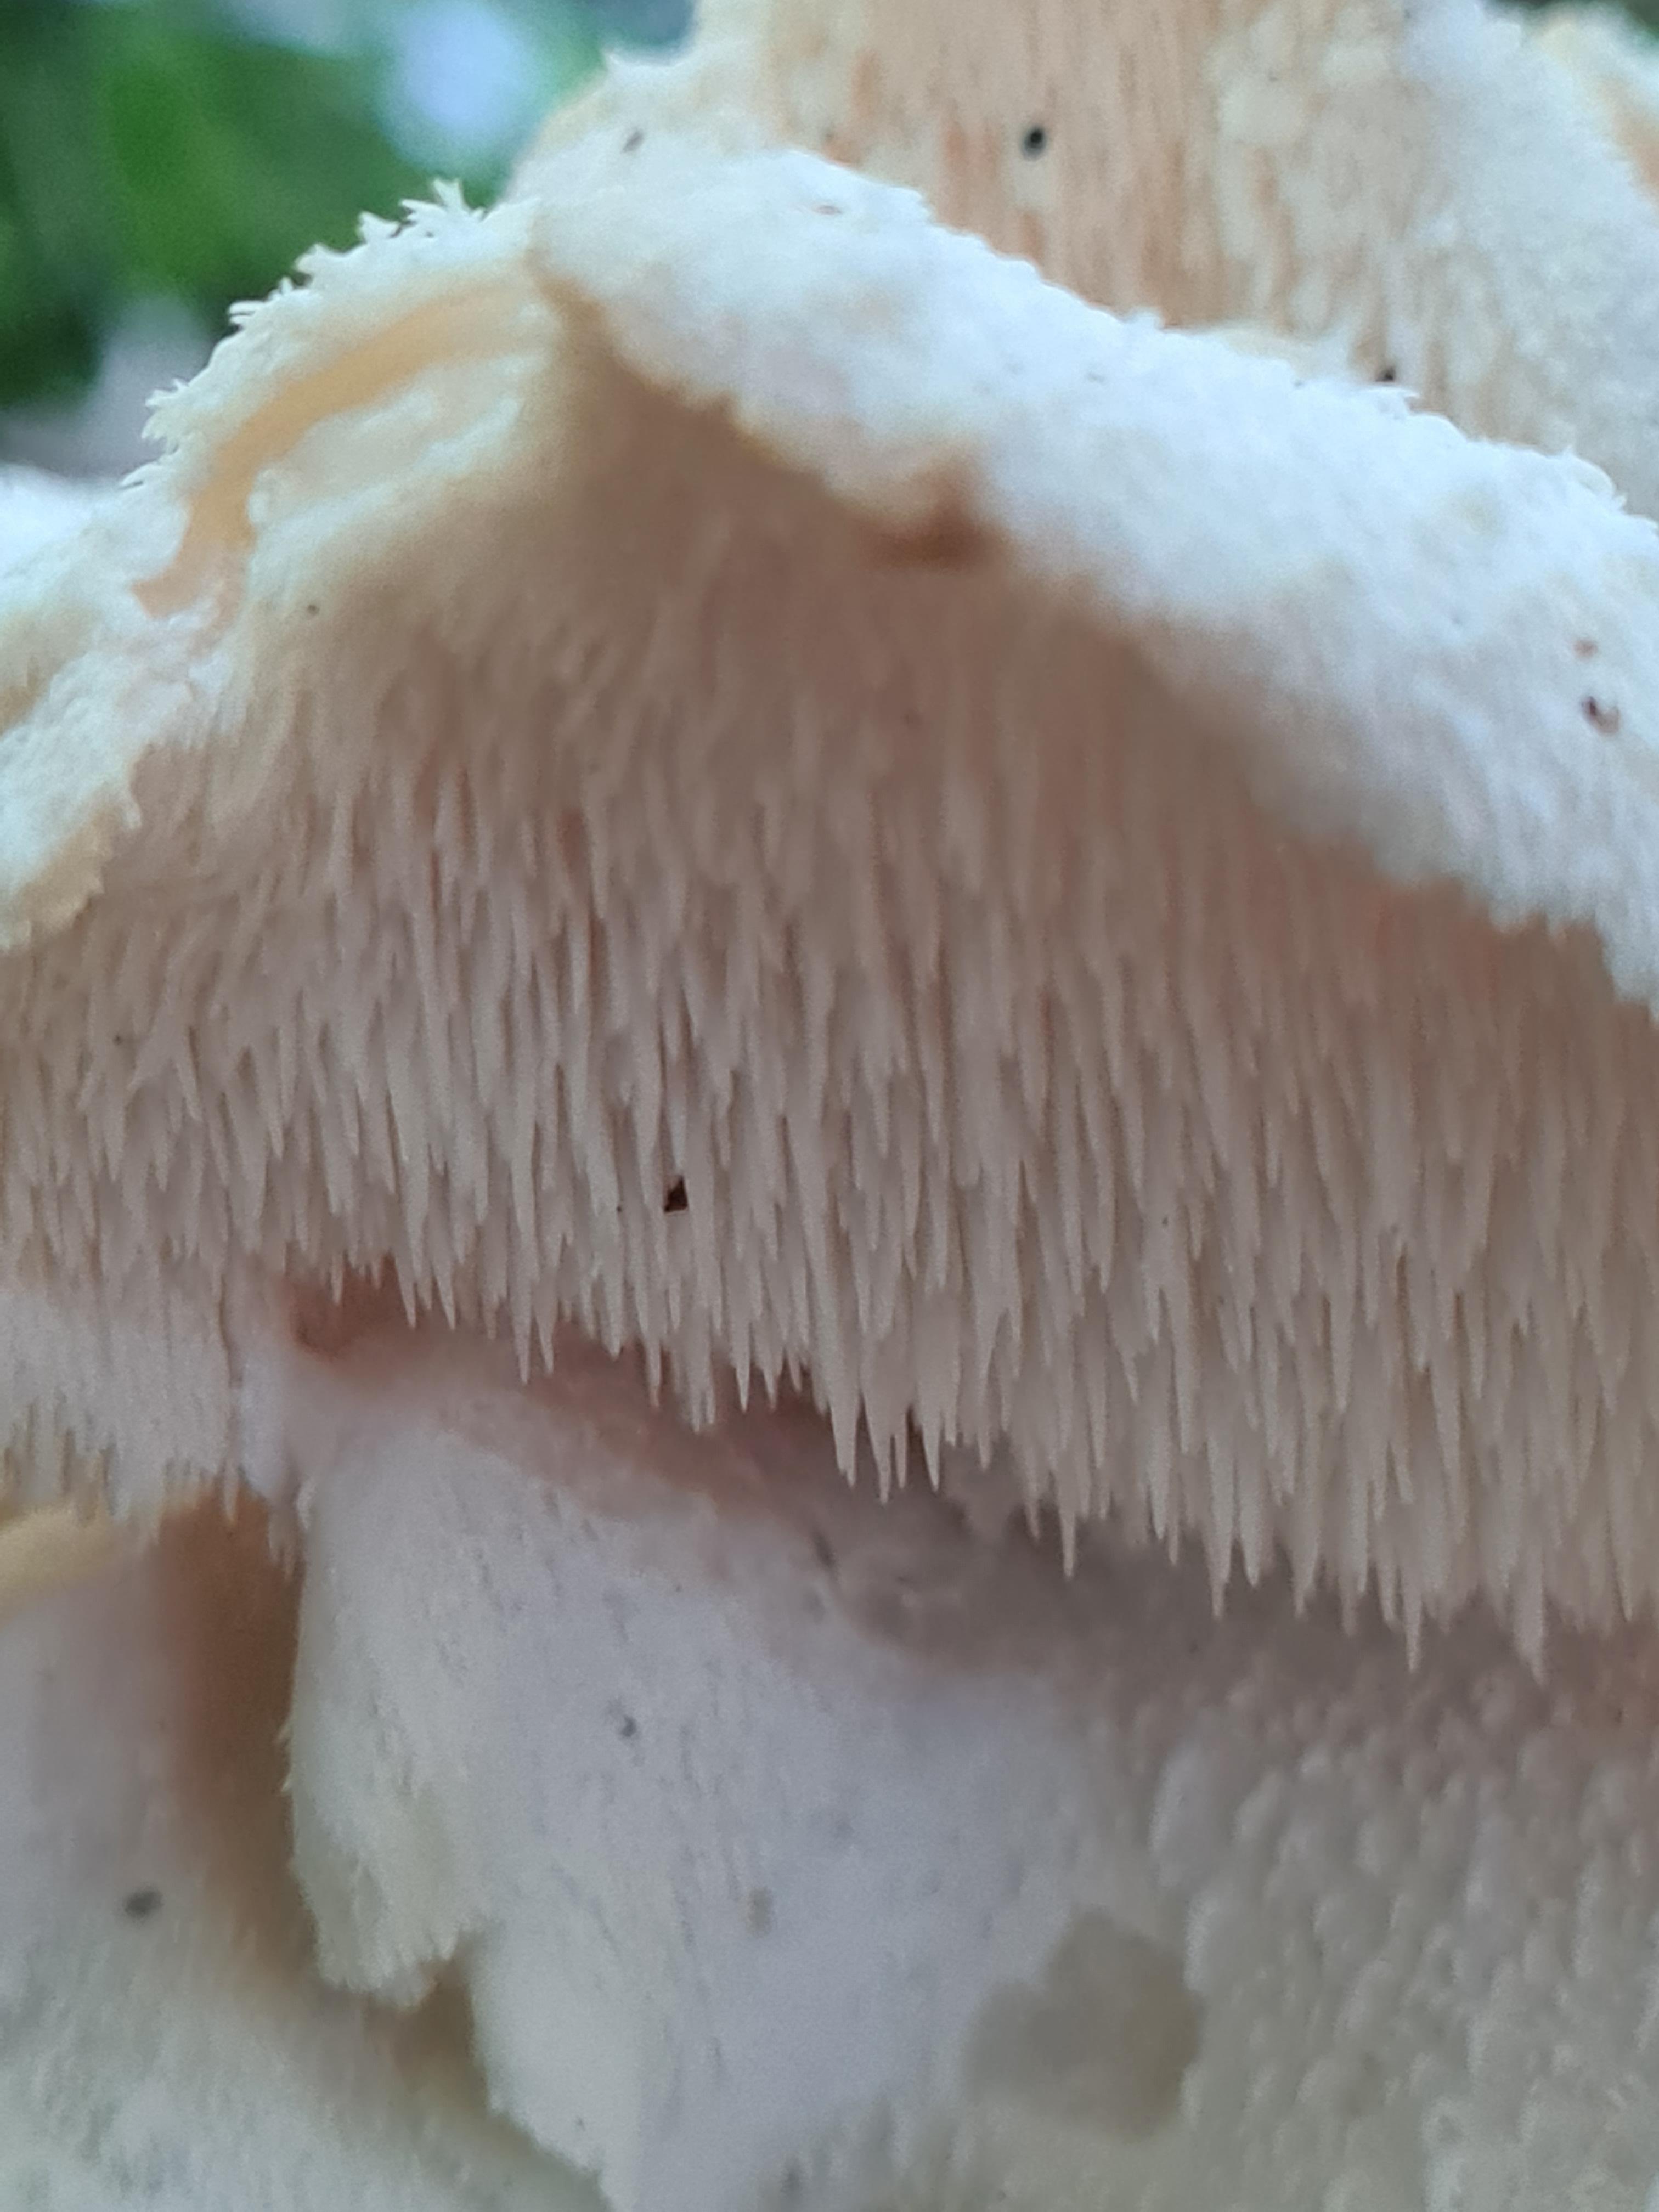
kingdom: Fungi
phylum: Basidiomycota
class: Agaricomycetes
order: Russulales
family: Hericiaceae
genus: Hericium
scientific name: Hericium cirrhatum
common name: børstepigsvamp
